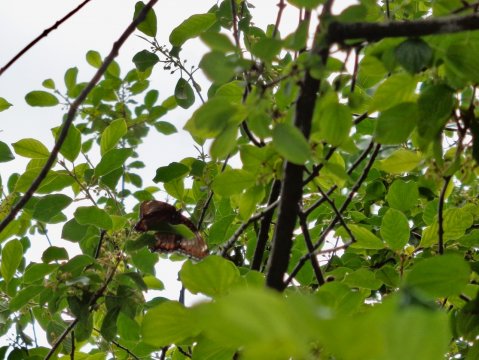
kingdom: Animalia
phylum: Arthropoda
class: Insecta
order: Lepidoptera
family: Nymphalidae
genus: Limenitis
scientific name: Limenitis arthemis
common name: Red-spotted Admiral
